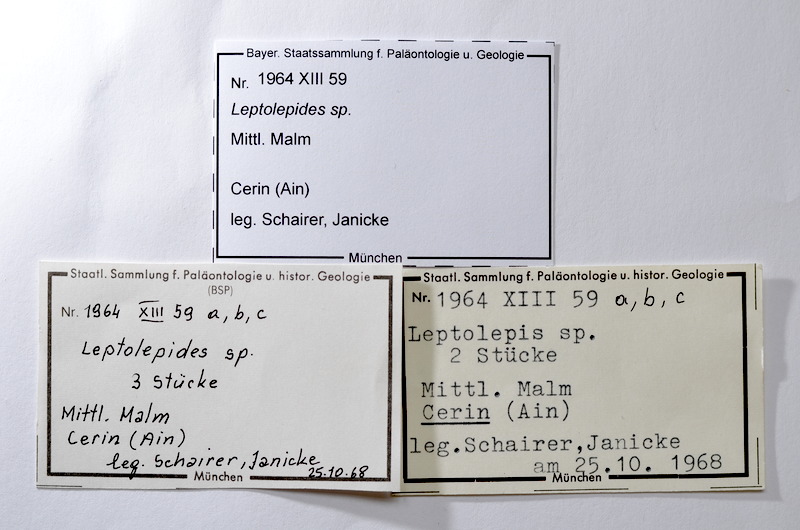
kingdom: Animalia
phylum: Chordata
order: Salmoniformes
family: Orthogonikleithridae
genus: Leptolepides
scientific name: Leptolepides
